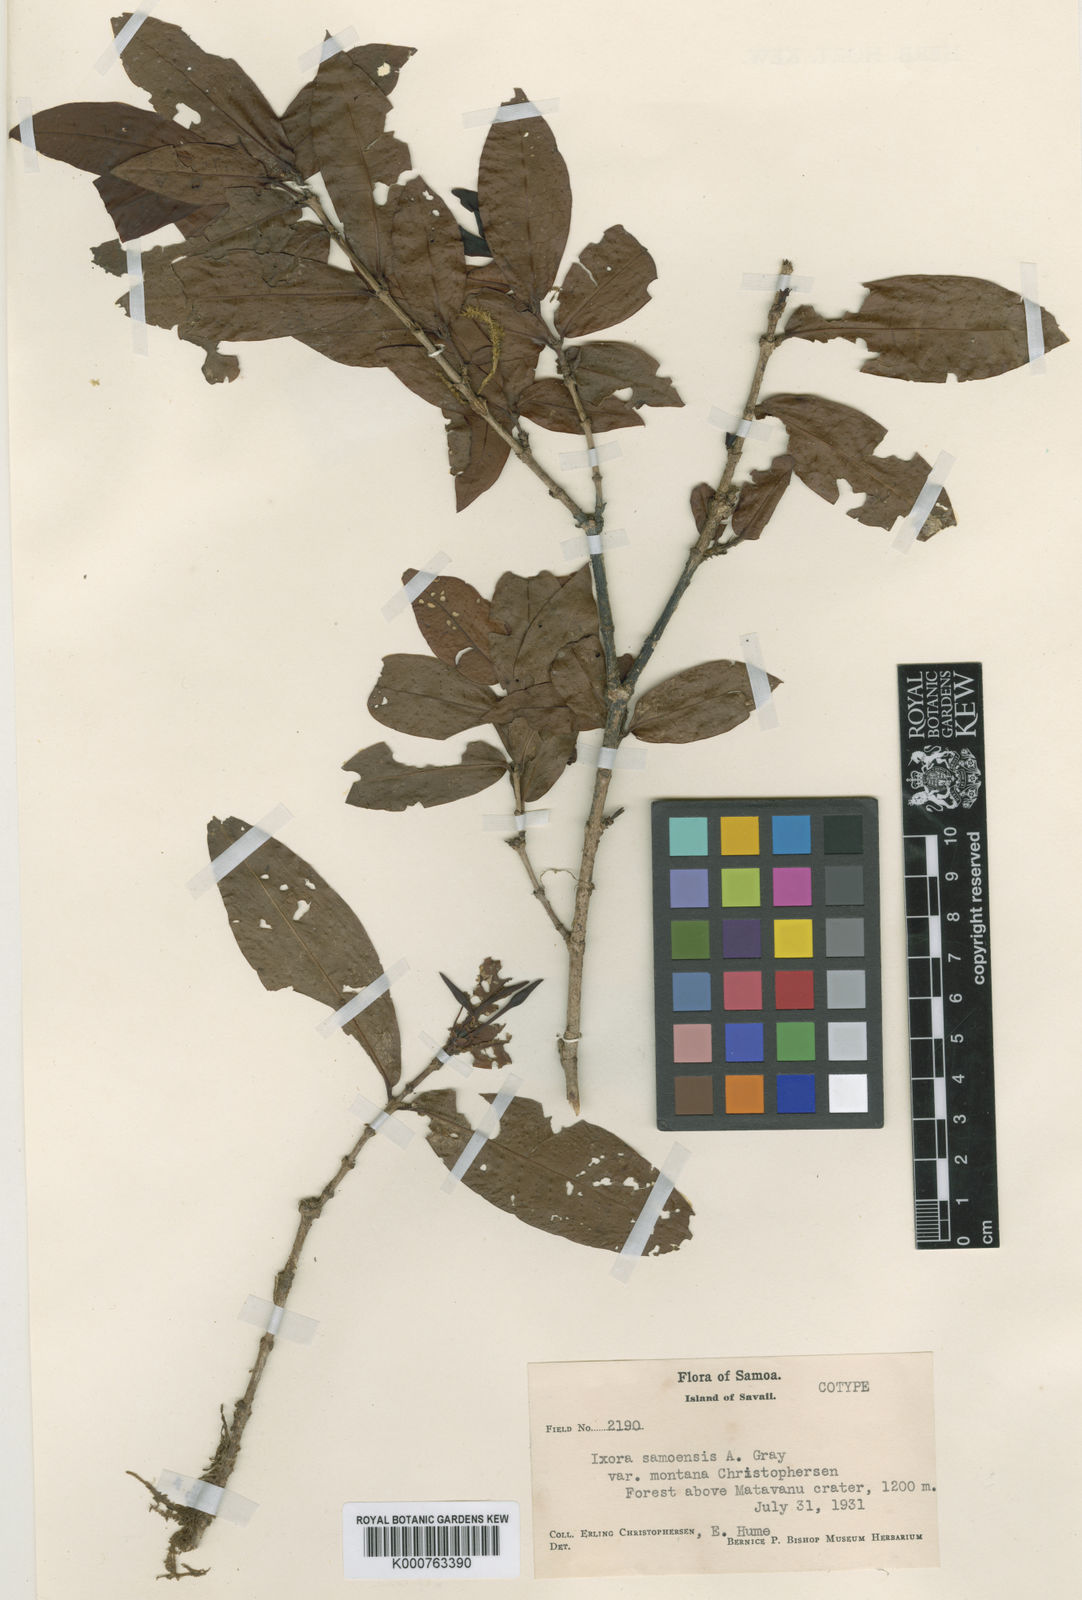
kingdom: Plantae
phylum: Tracheophyta
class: Magnoliopsida
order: Gentianales
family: Rubiaceae
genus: Ixora
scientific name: Ixora samoensis
